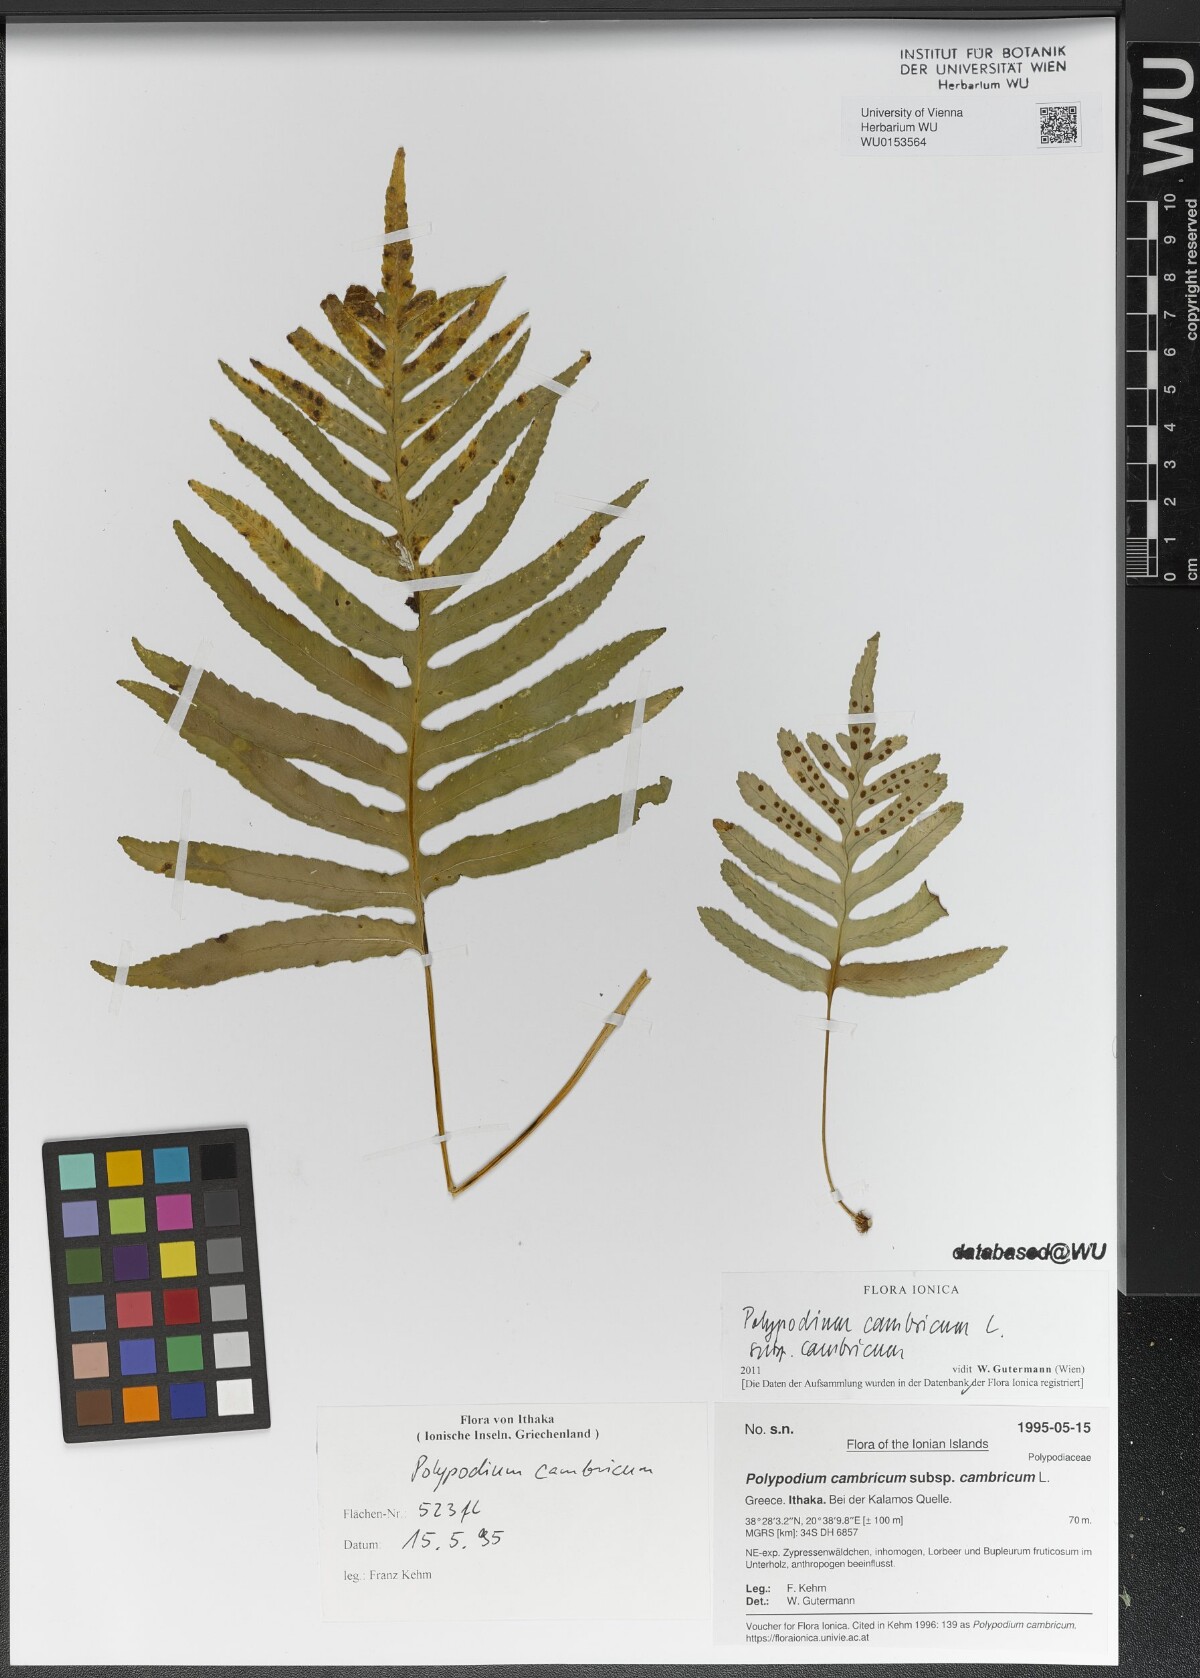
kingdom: Plantae
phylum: Tracheophyta
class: Polypodiopsida
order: Polypodiales
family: Polypodiaceae
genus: Polypodium
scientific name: Polypodium cambricum
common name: Southern polypody
